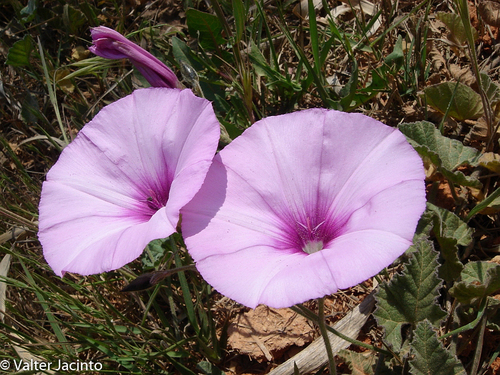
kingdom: Plantae
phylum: Tracheophyta
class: Magnoliopsida
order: Solanales
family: Convolvulaceae
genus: Convolvulus
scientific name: Convolvulus althaeoides
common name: Mallow bindweed
